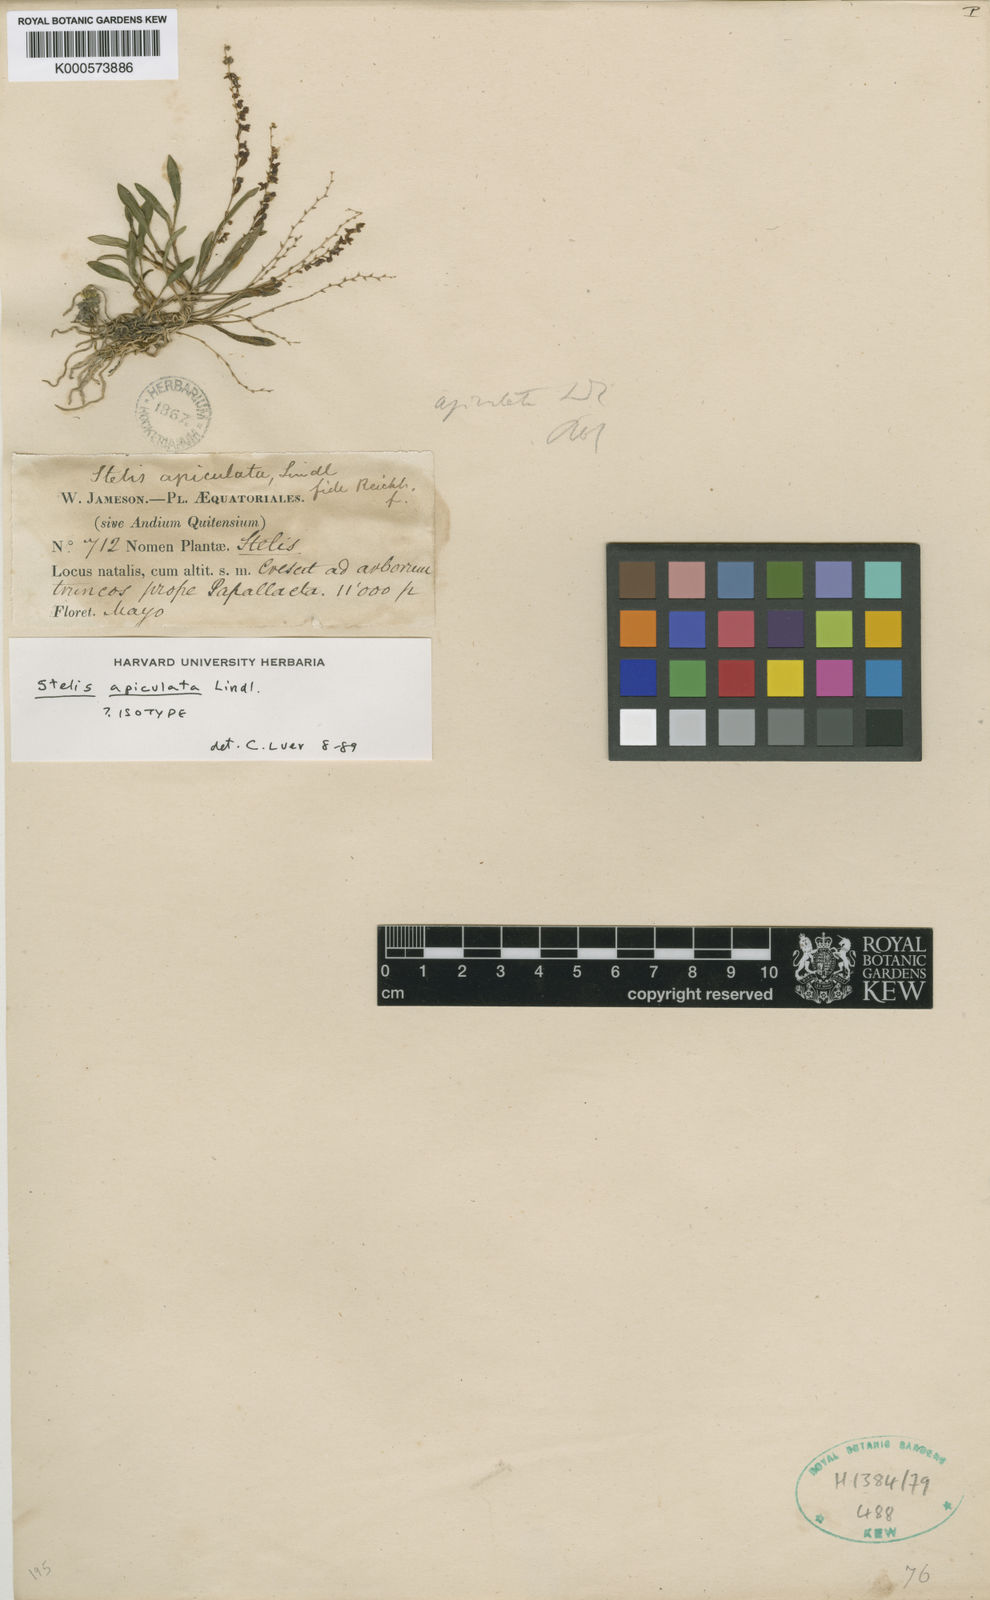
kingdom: Plantae
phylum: Tracheophyta
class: Liliopsida
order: Asparagales
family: Orchidaceae
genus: Stelis
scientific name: Stelis pusilla
